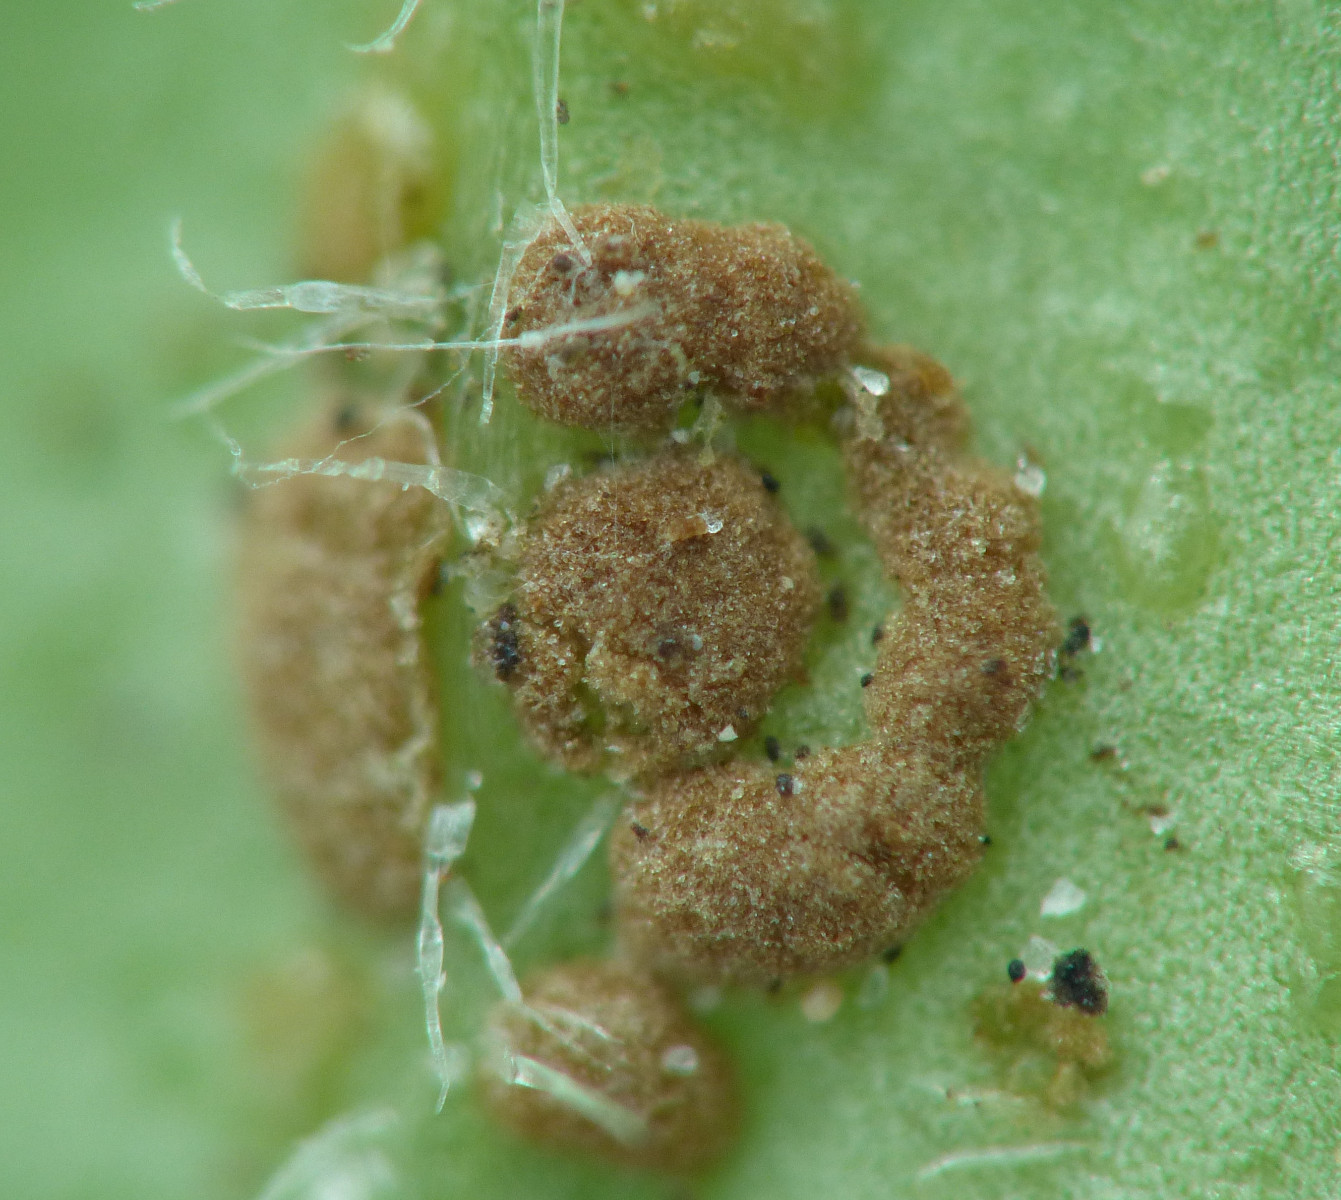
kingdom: Fungi
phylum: Basidiomycota
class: Pucciniomycetes
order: Pucciniales
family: Pucciniaceae
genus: Puccinia
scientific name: Puccinia albulensis
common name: Alpine veronica rust
